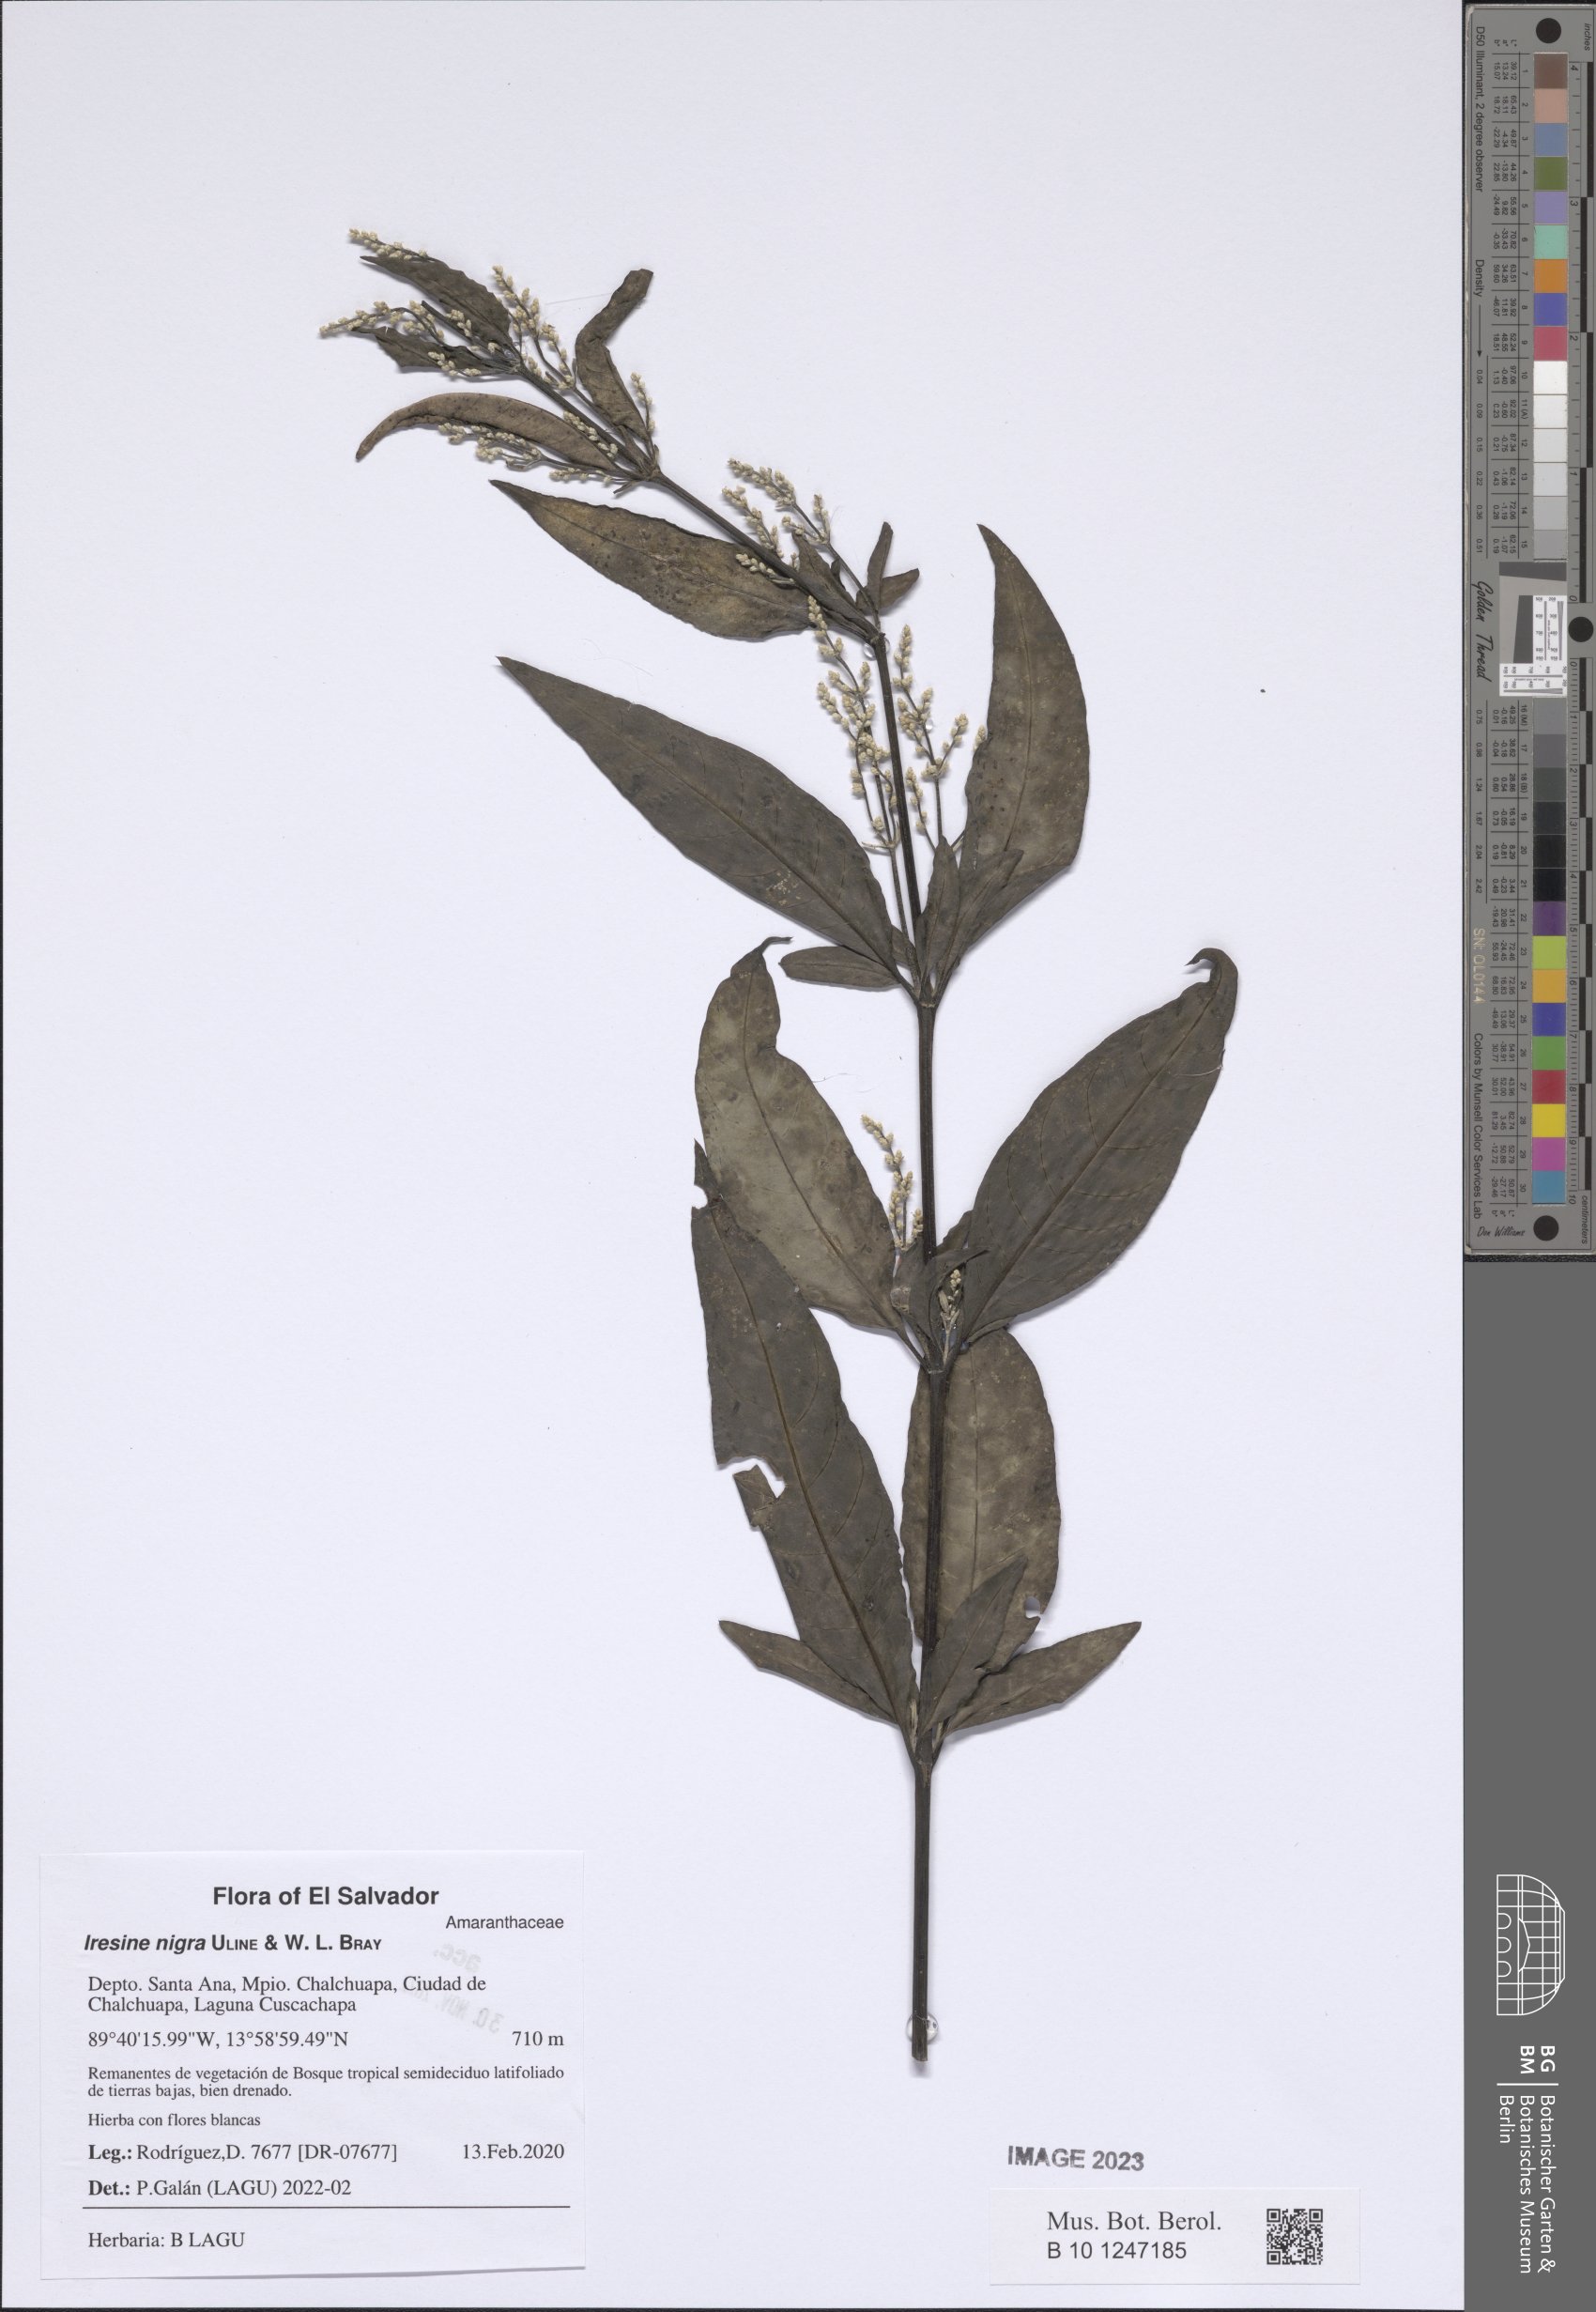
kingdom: Plantae
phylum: Tracheophyta
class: Magnoliopsida
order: Caryophyllales
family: Amaranthaceae
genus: Iresine
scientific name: Iresine nigra
